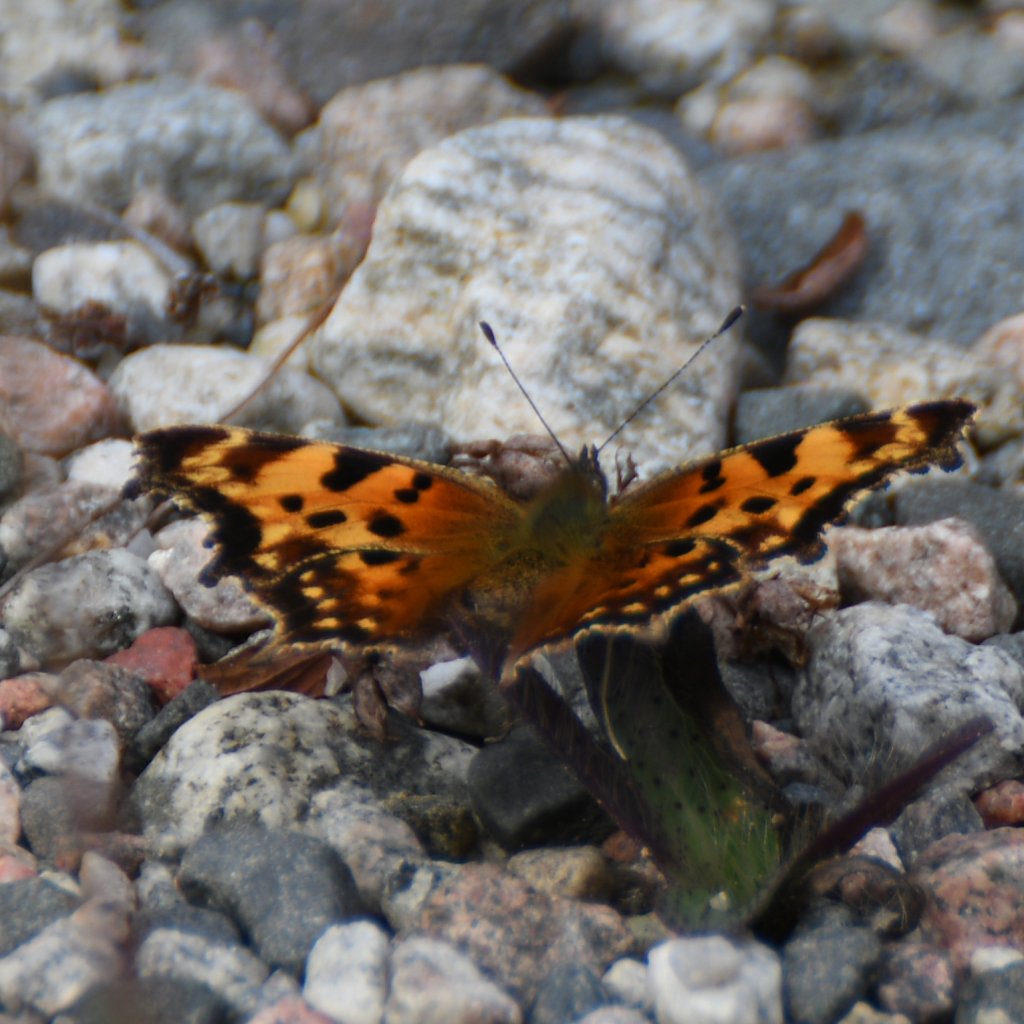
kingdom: Animalia
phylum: Arthropoda
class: Insecta
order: Lepidoptera
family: Nymphalidae
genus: Polygonia
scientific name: Polygonia faunus
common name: Green Comma
